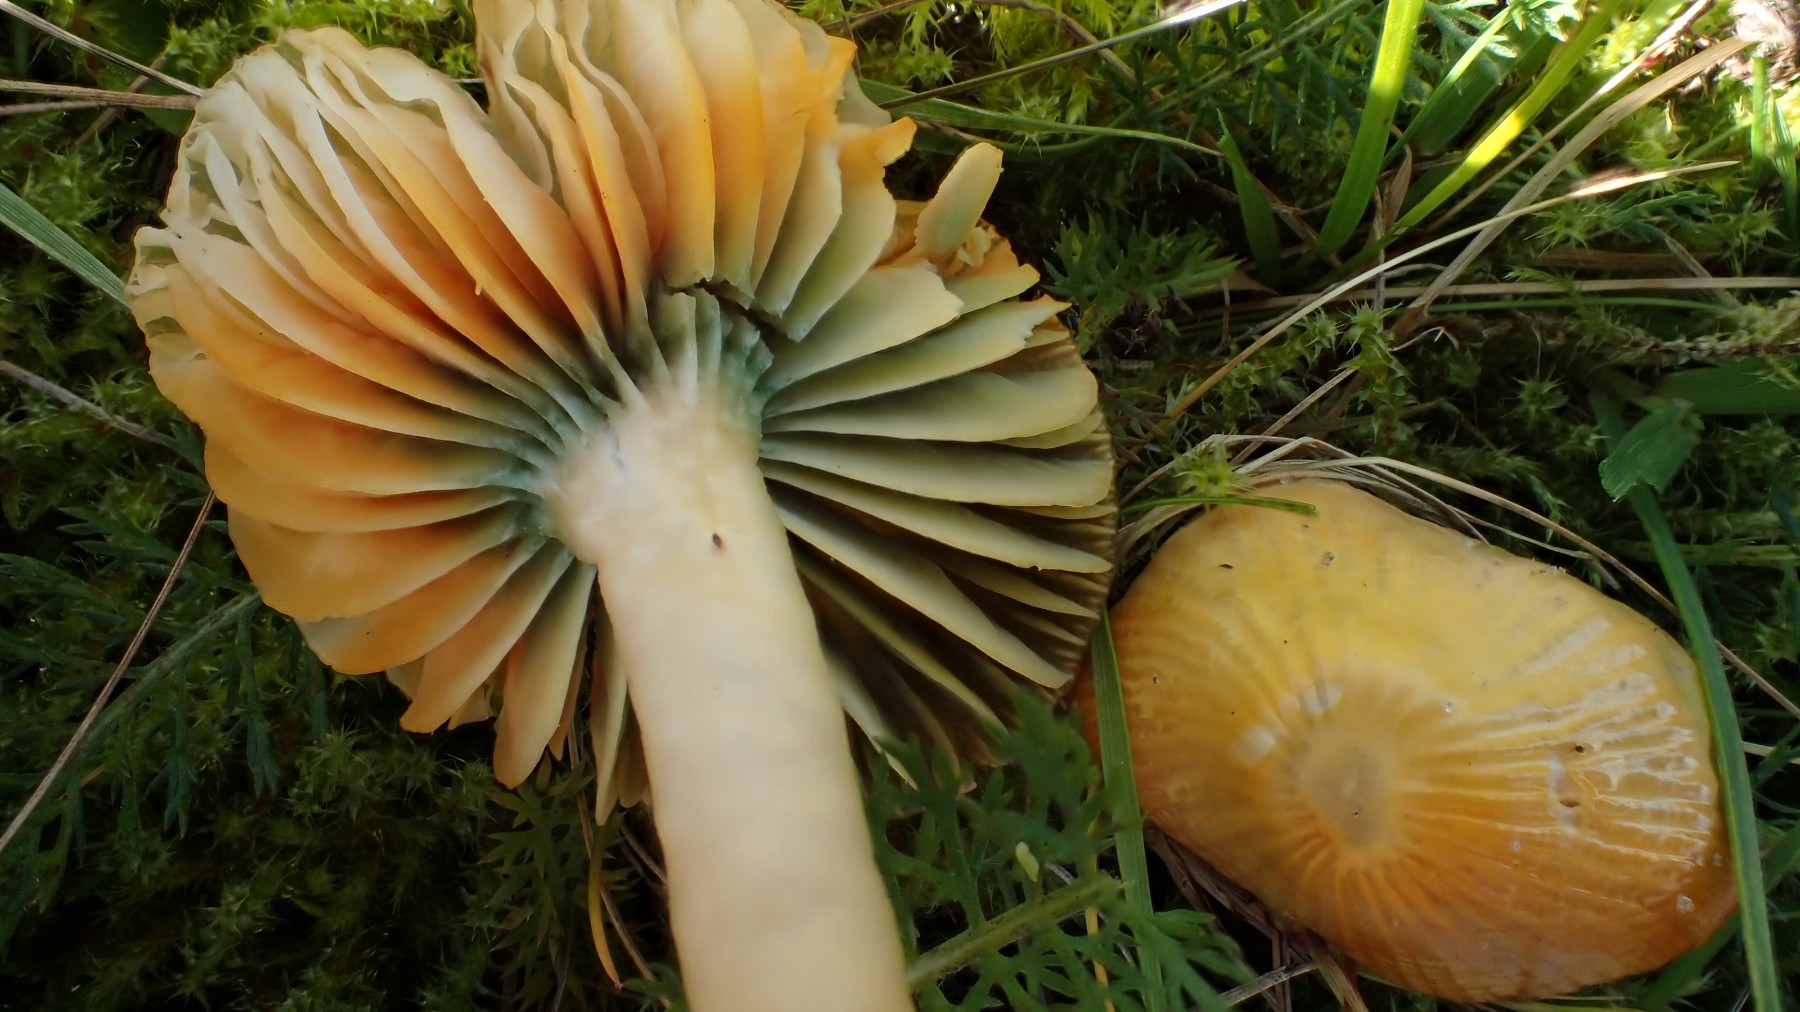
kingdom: Fungi
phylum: Basidiomycota
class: Agaricomycetes
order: Agaricales
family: Hygrophoraceae
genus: Gliophorus
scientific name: Gliophorus psittacinus
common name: papegøje-vokshat
